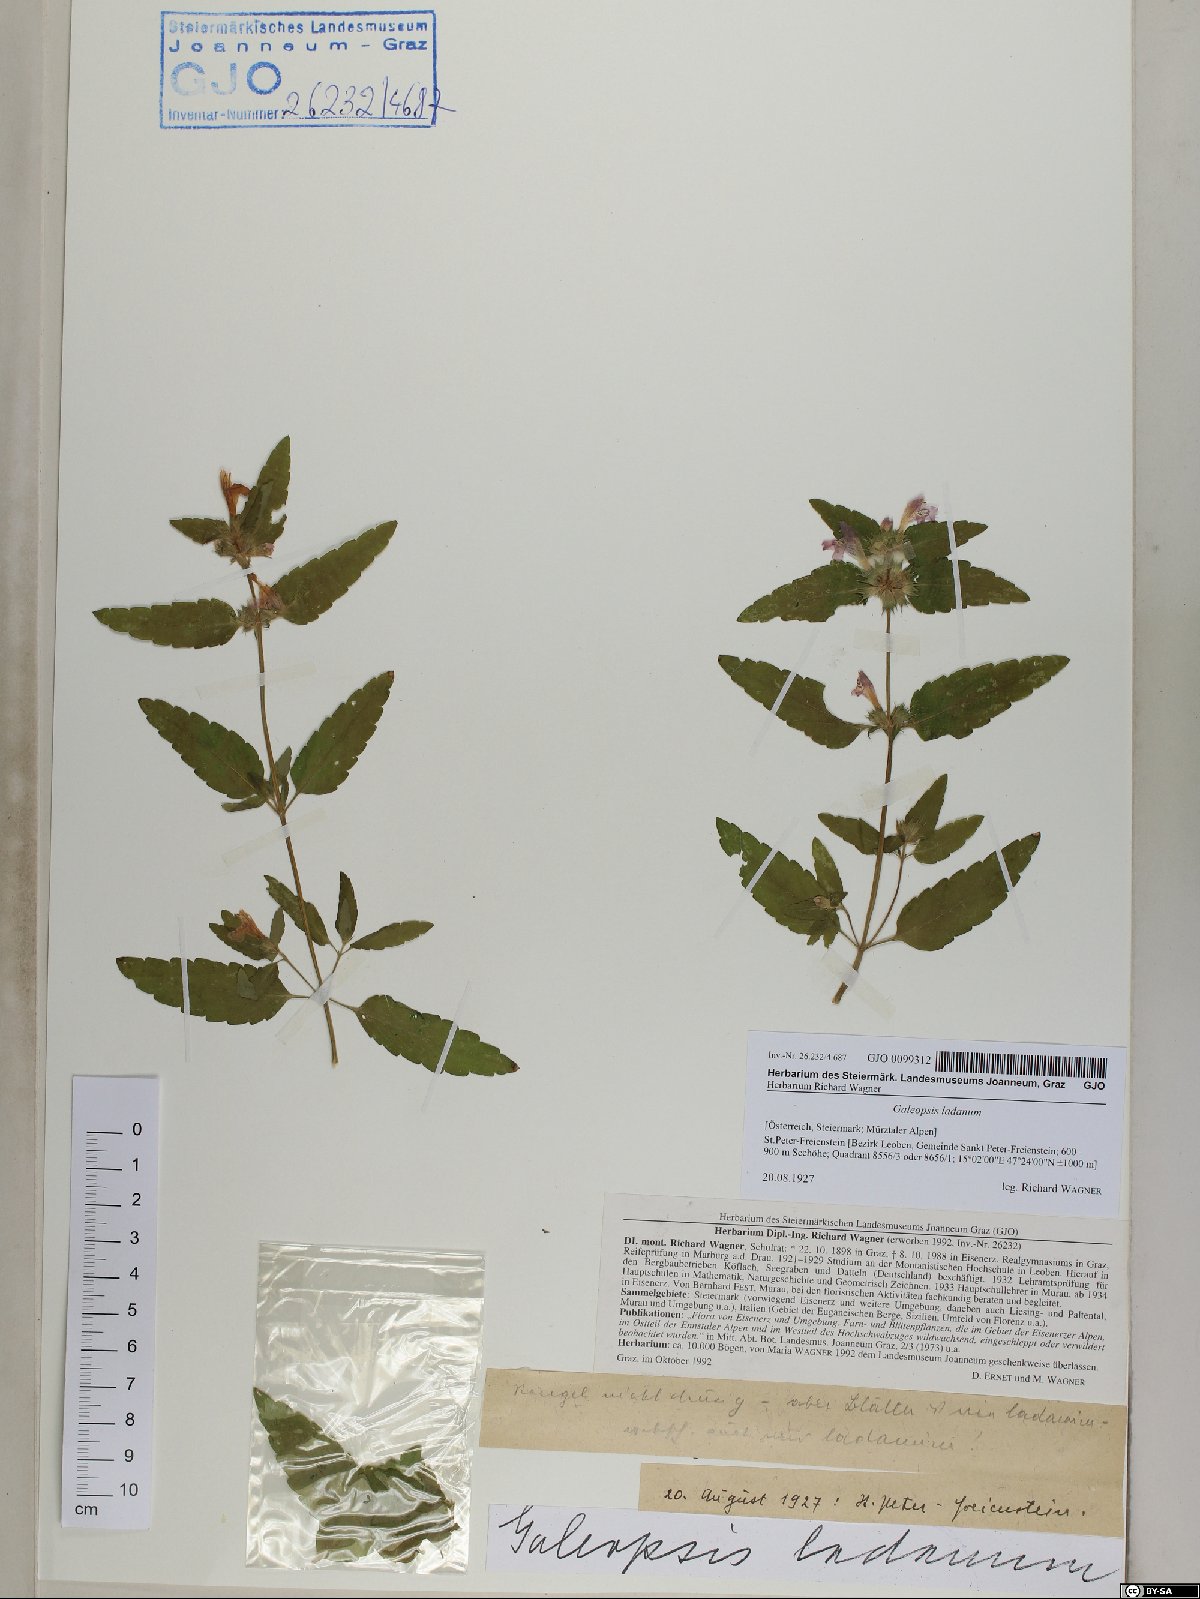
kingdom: Plantae
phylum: Tracheophyta
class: Magnoliopsida
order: Lamiales
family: Lamiaceae
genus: Galeopsis
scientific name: Galeopsis ladanum
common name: Broad-leaved hemp-nettle
